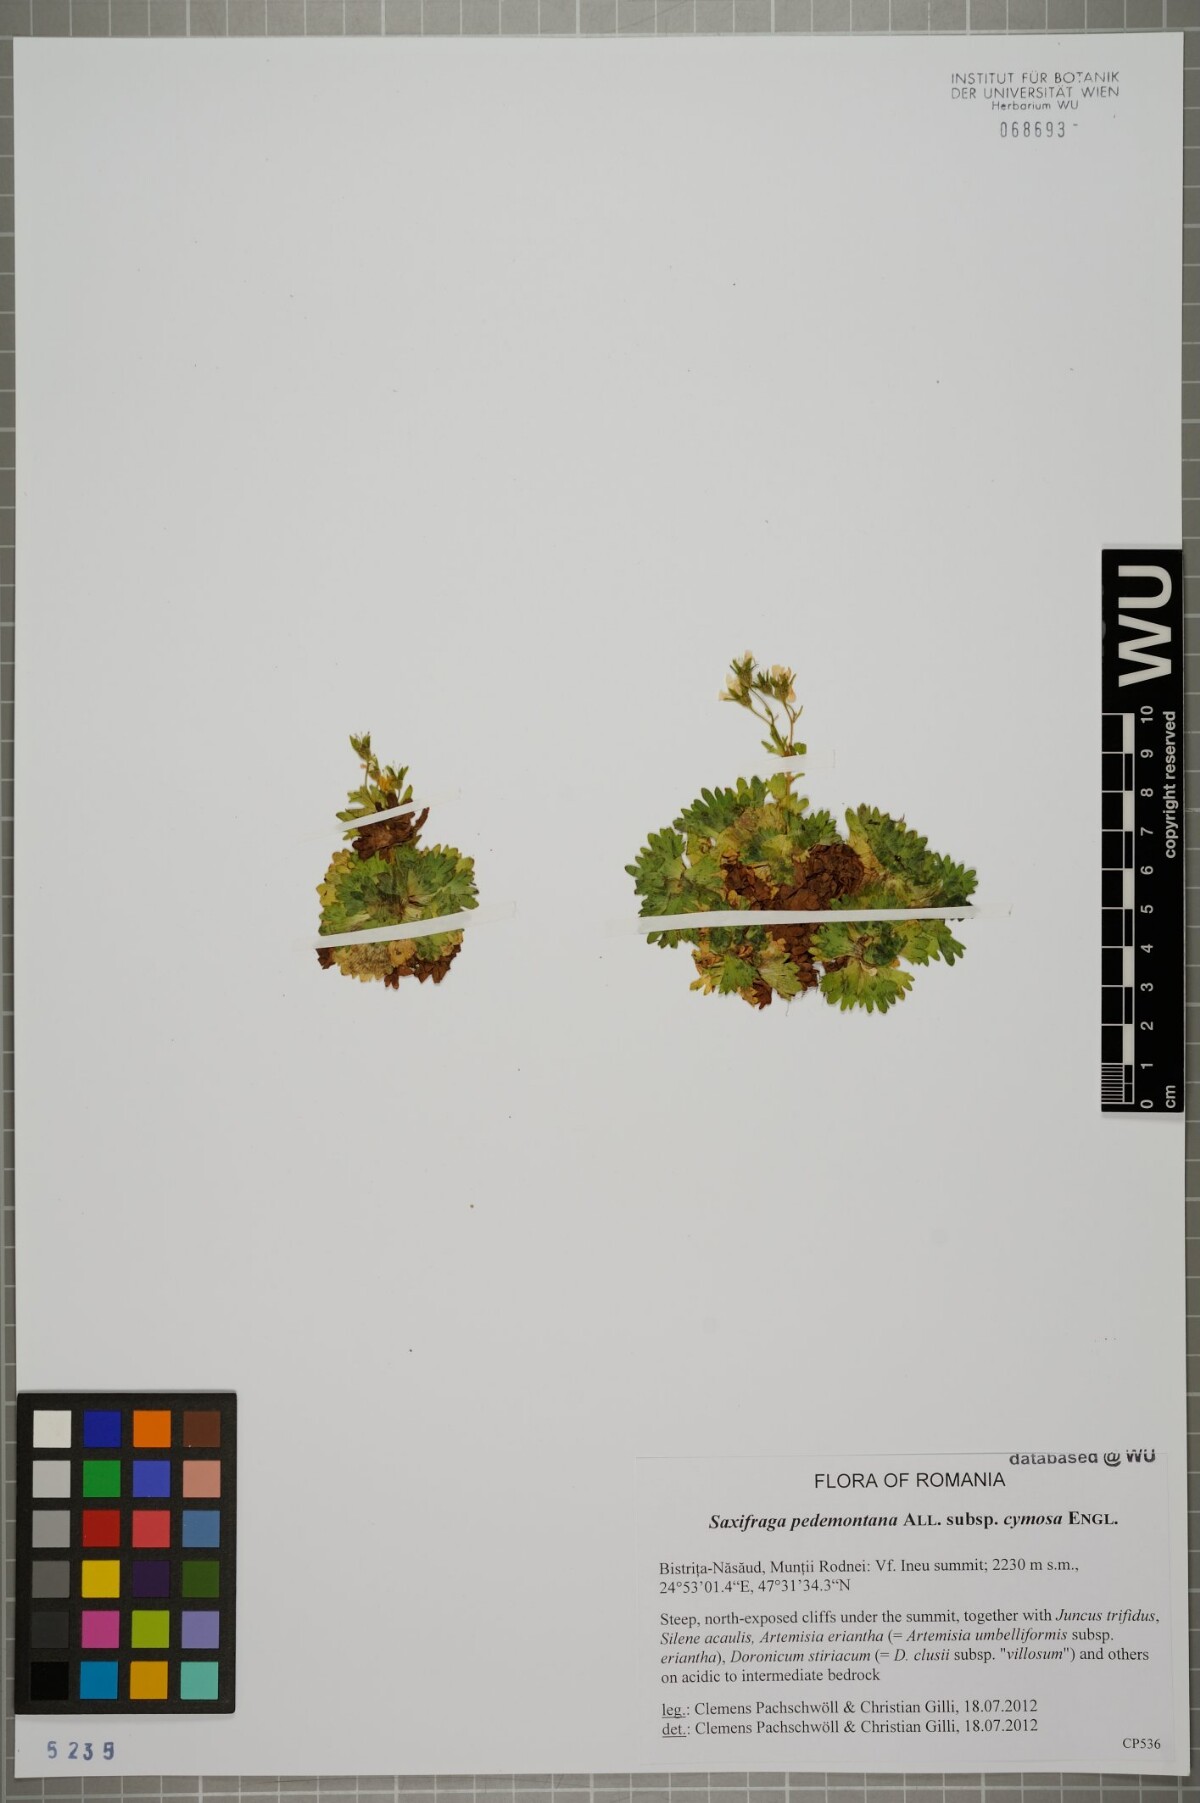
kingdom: Plantae
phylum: Tracheophyta
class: Magnoliopsida
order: Saxifragales
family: Saxifragaceae
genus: Saxifraga
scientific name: Saxifraga pedemontana
